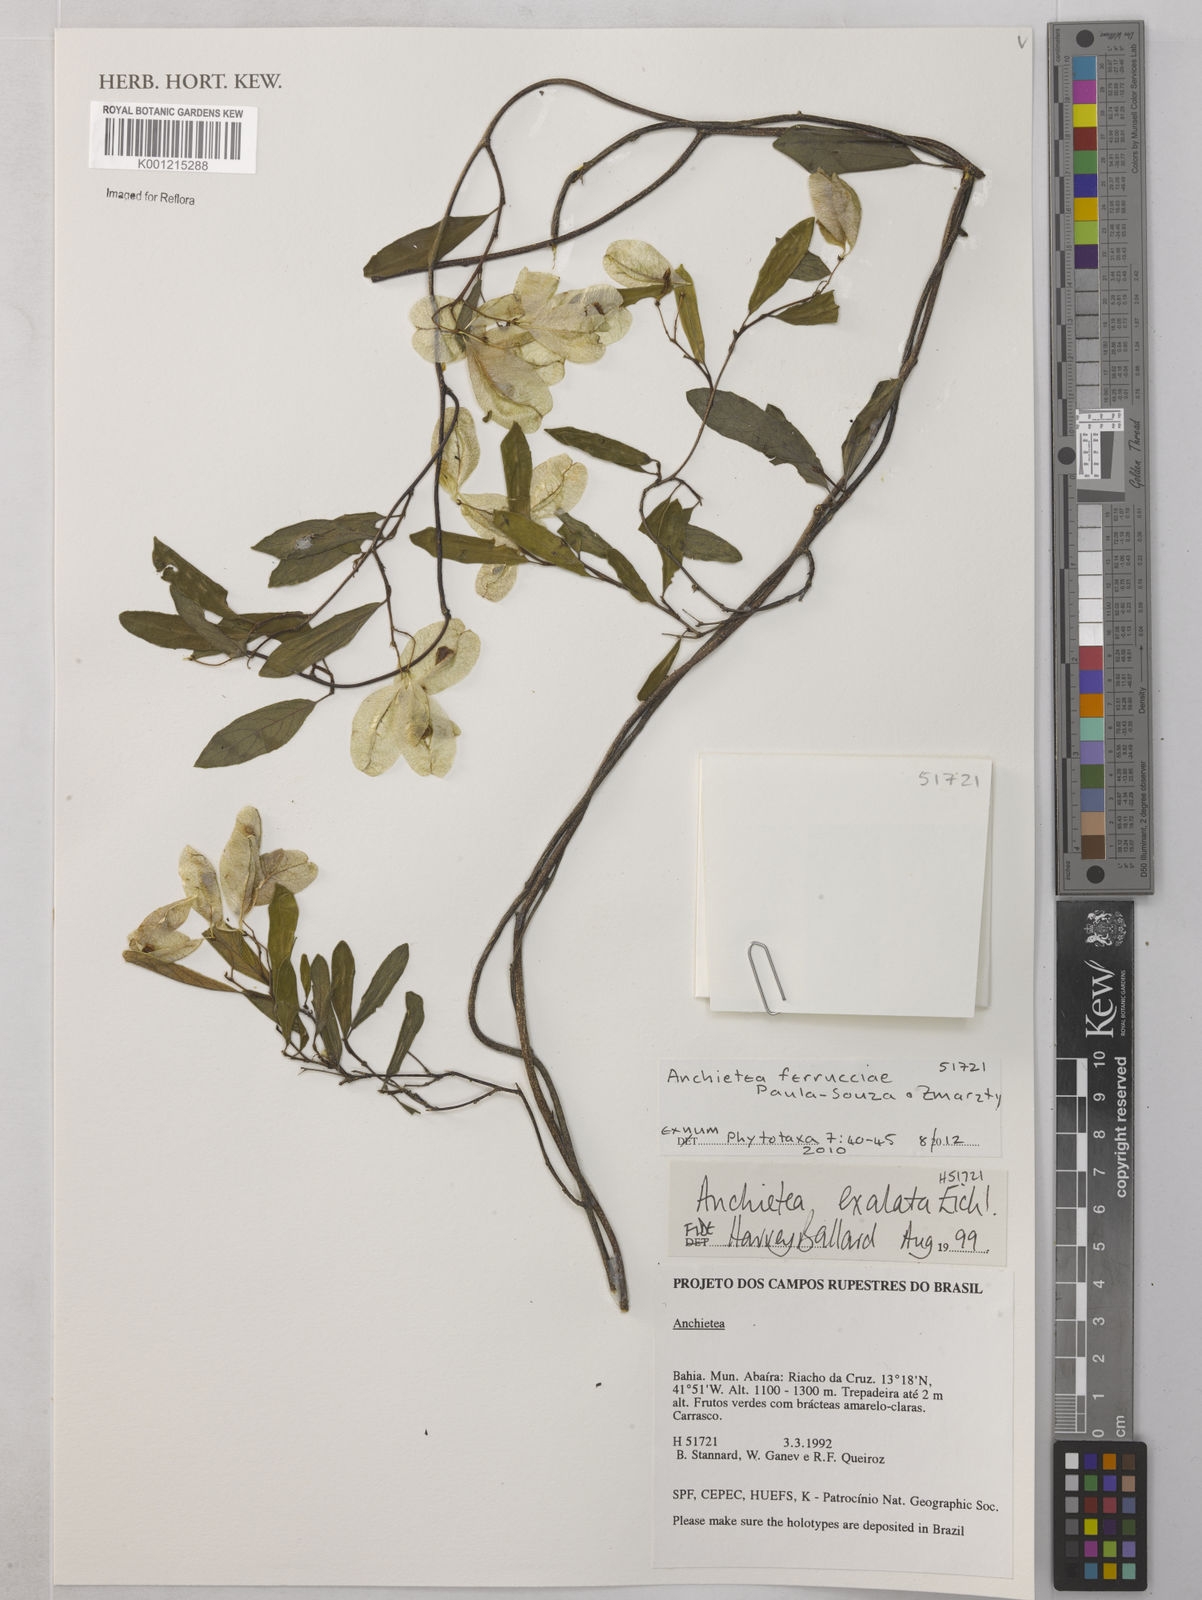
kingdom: Plantae
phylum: Tracheophyta
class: Magnoliopsida
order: Malpighiales
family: Violaceae
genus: Anchietea
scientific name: Anchietea ferrucciae
